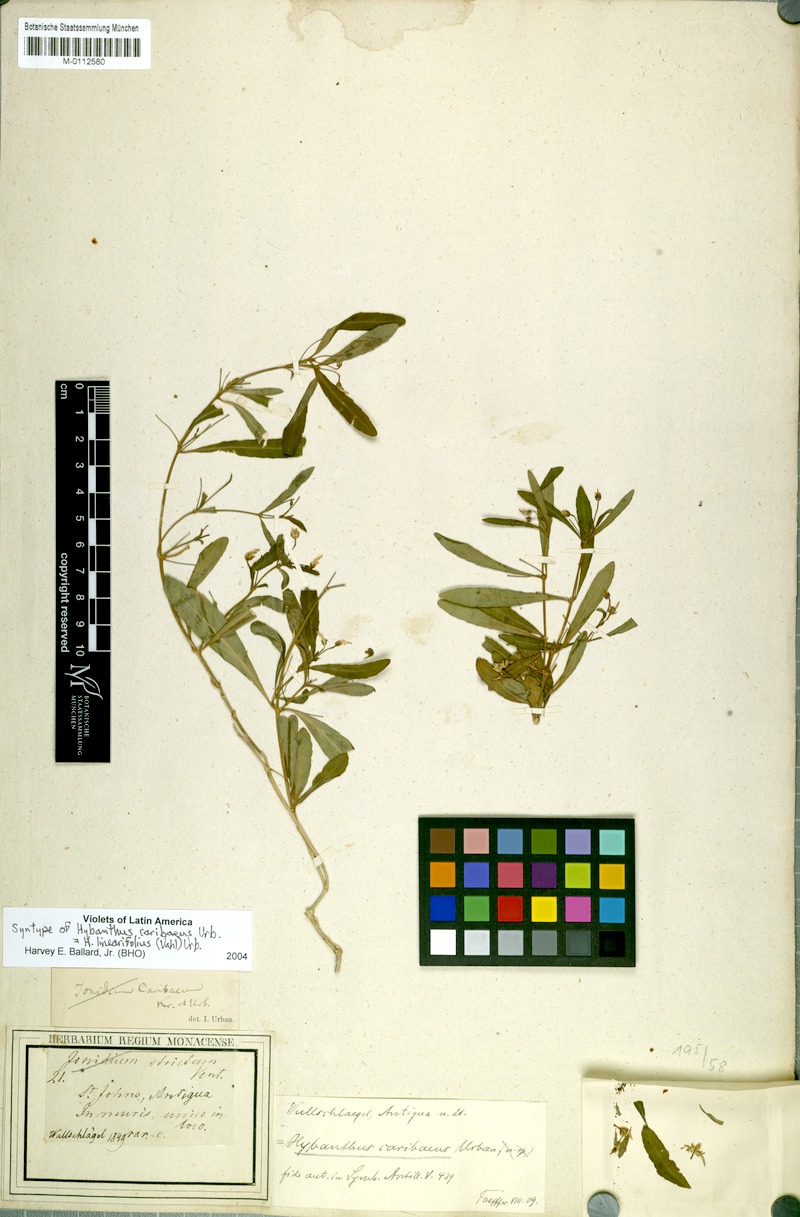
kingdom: Plantae
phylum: Tracheophyta
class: Magnoliopsida
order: Malpighiales
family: Violaceae
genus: Pombalia
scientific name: Pombalia linearifolia
